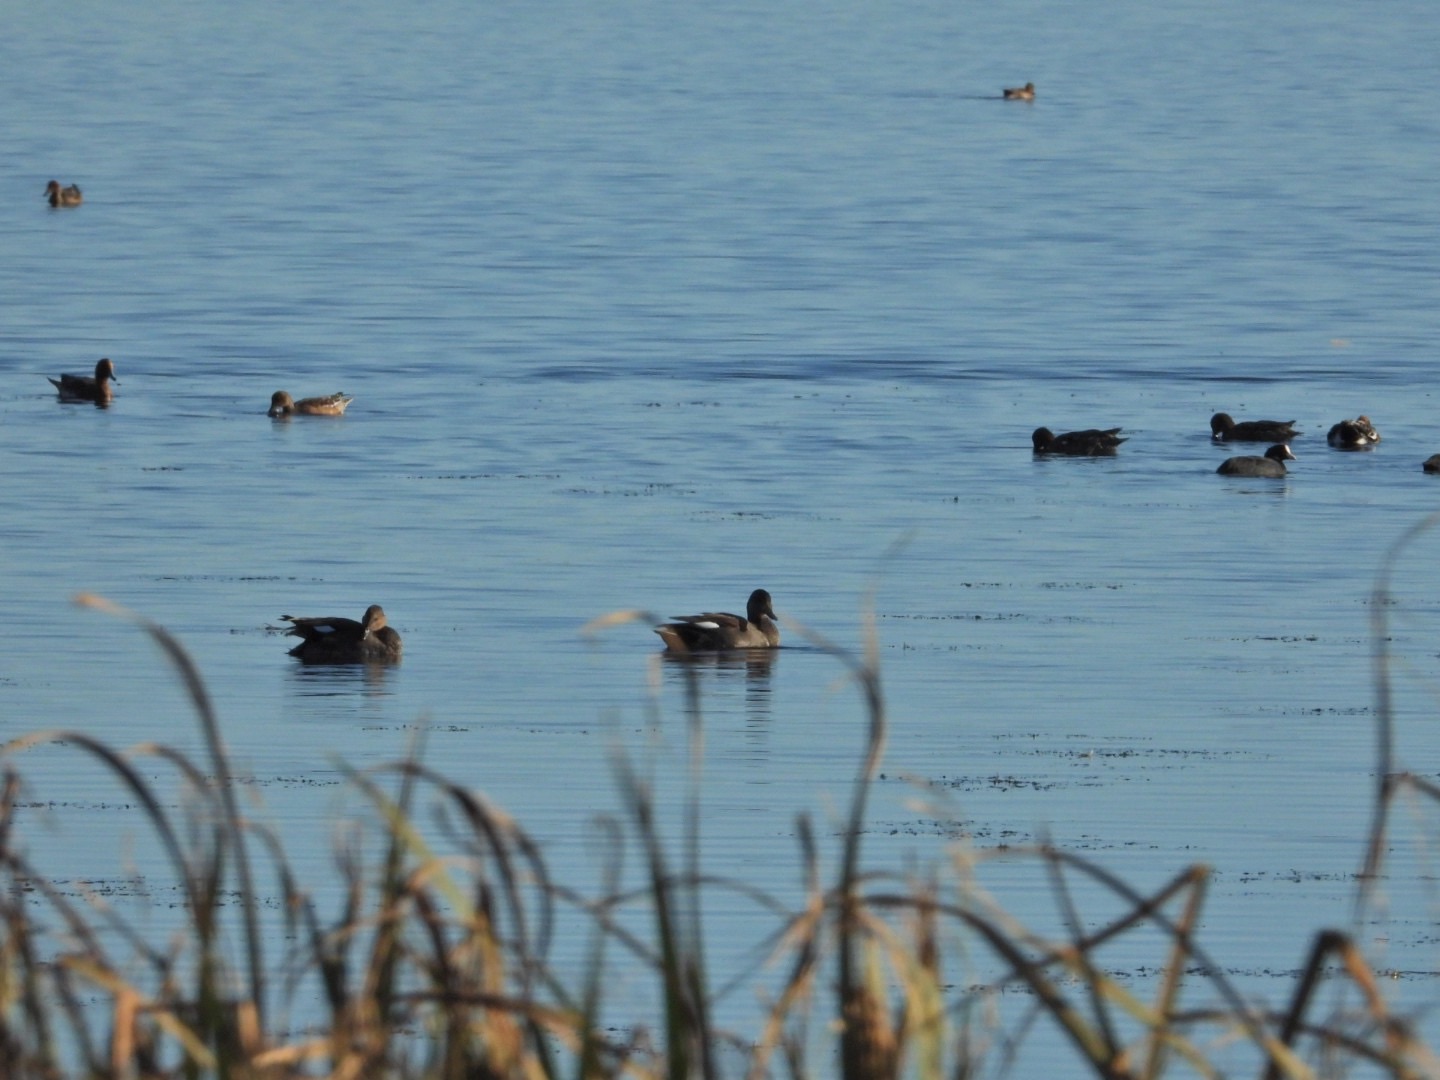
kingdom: Animalia
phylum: Chordata
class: Aves
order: Anseriformes
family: Anatidae
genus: Mareca
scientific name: Mareca strepera
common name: Knarand
